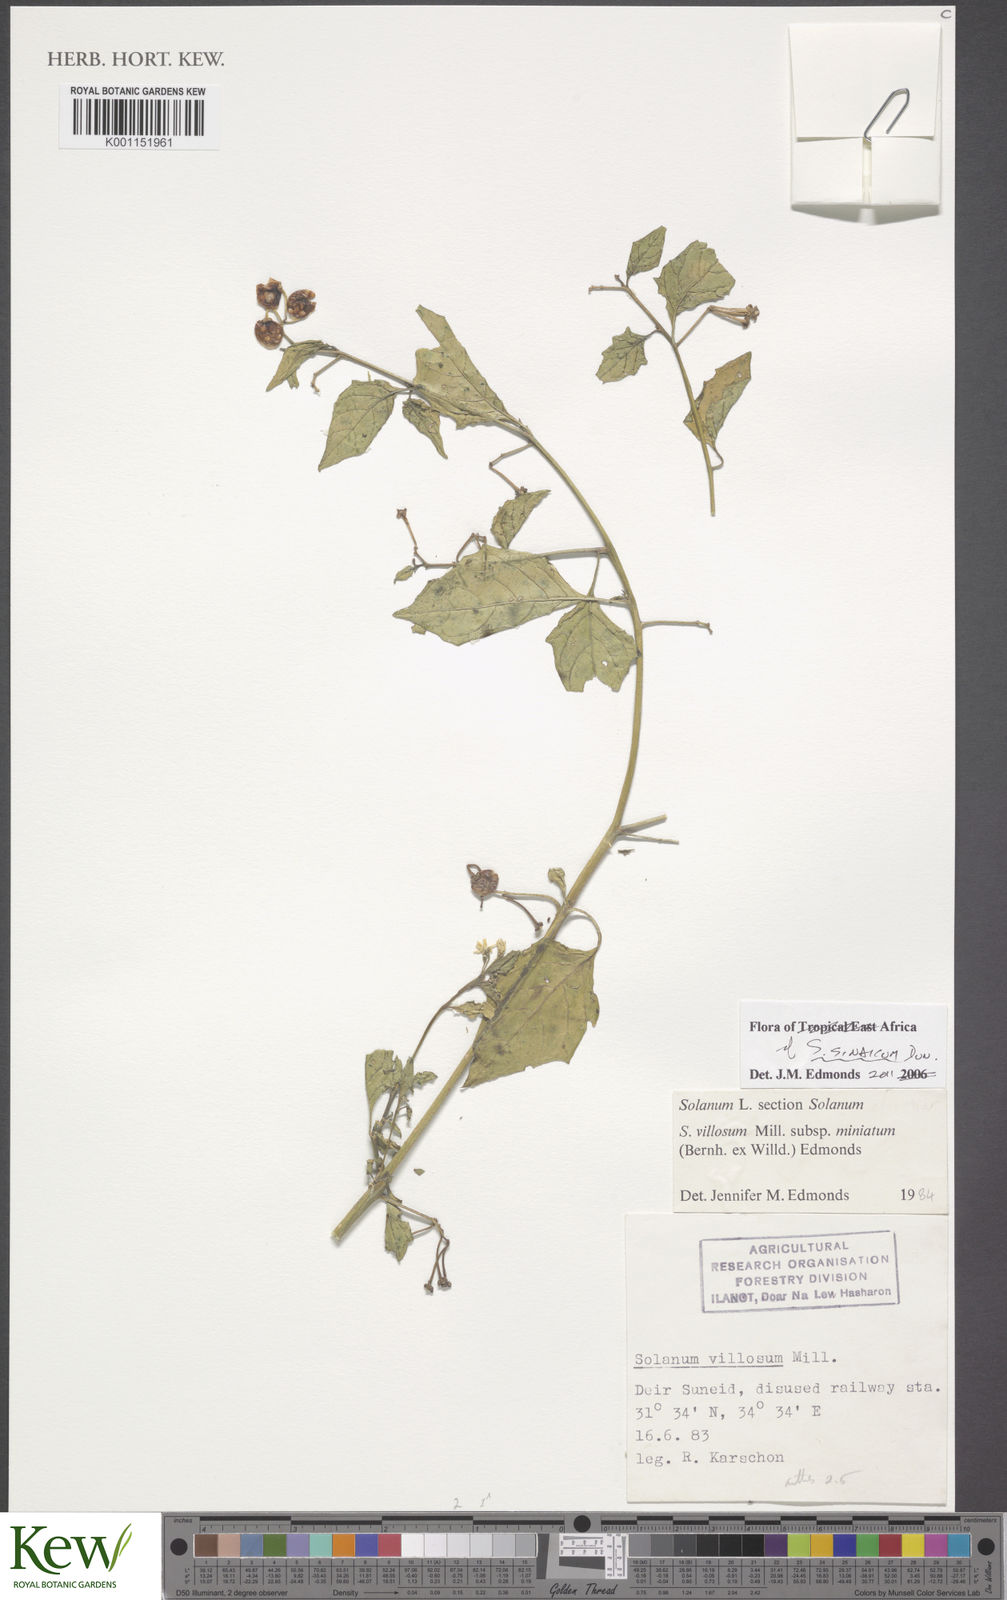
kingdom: Plantae
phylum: Tracheophyta
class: Magnoliopsida
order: Solanales
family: Solanaceae
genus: Solanum
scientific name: Solanum villosum
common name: Red nightshade
